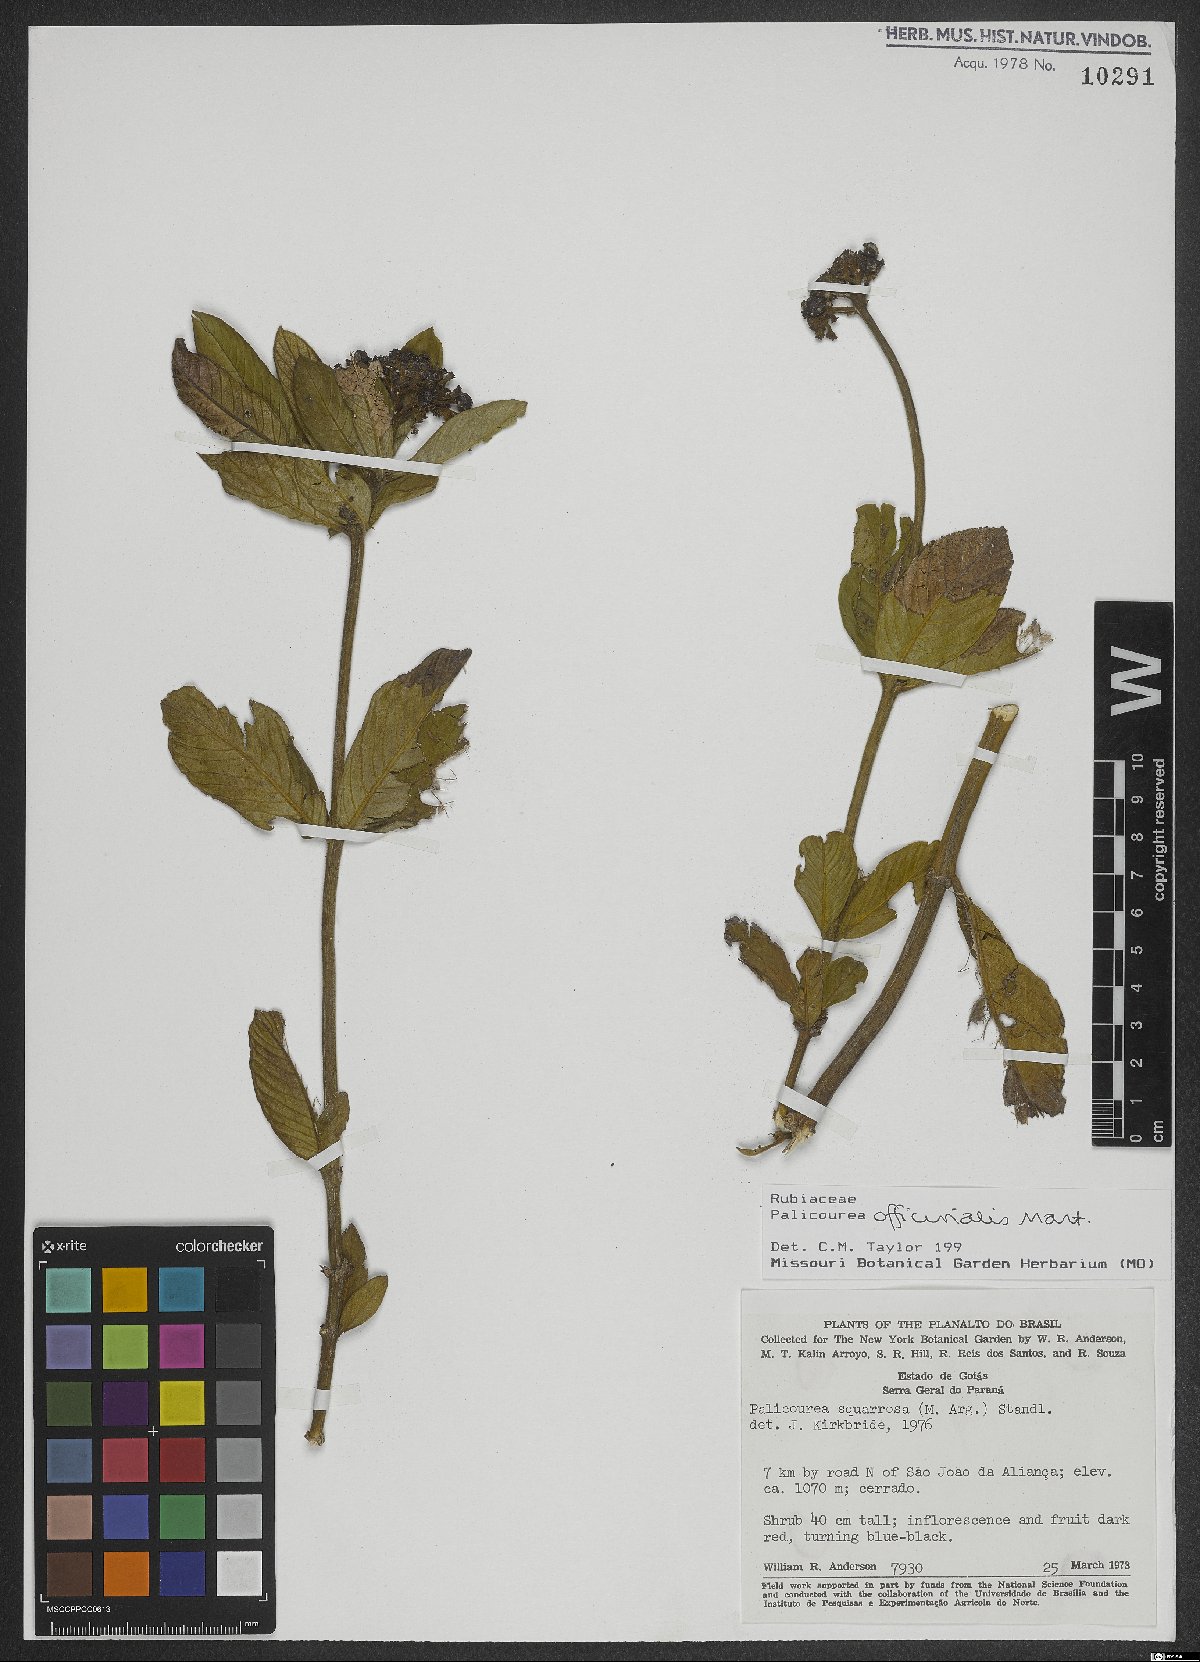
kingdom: Plantae
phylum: Tracheophyta
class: Magnoliopsida
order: Gentianales
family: Rubiaceae
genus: Palicourea
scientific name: Palicourea officinalis
